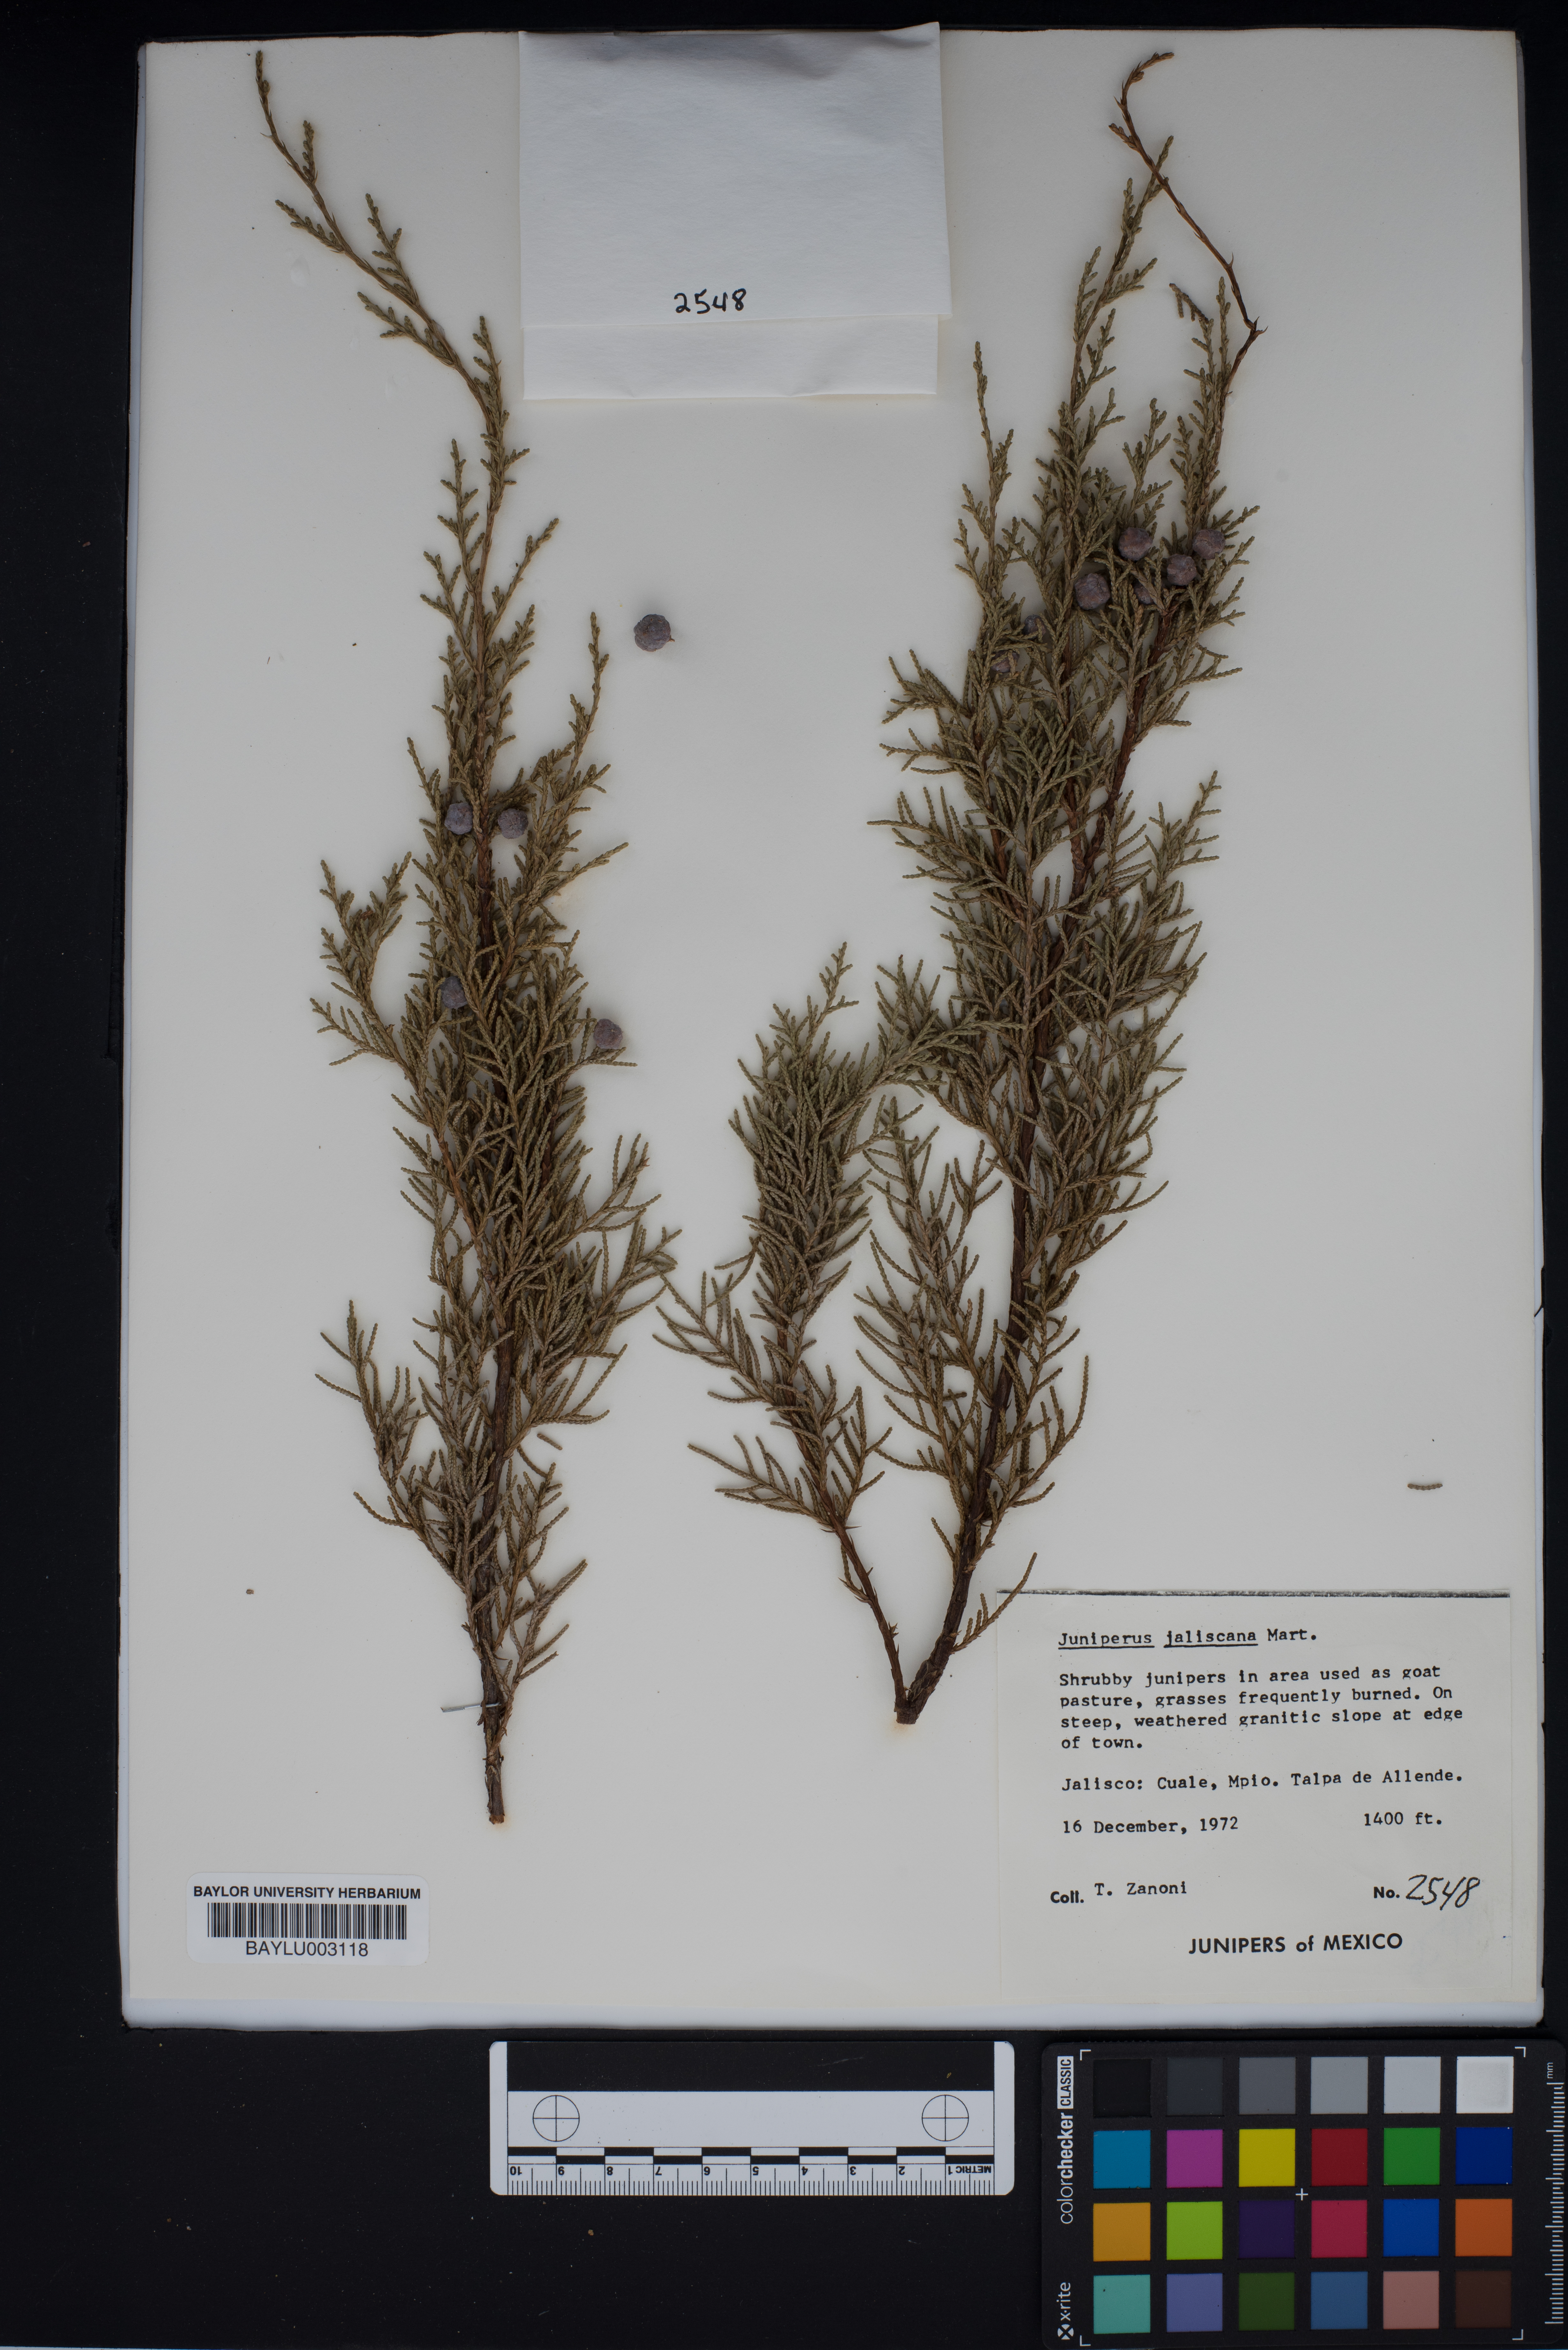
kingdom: Plantae
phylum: Tracheophyta
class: Pinopsida
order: Pinales
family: Cupressaceae
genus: Juniperus
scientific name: Juniperus jaliscana
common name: Jalisco juniper
